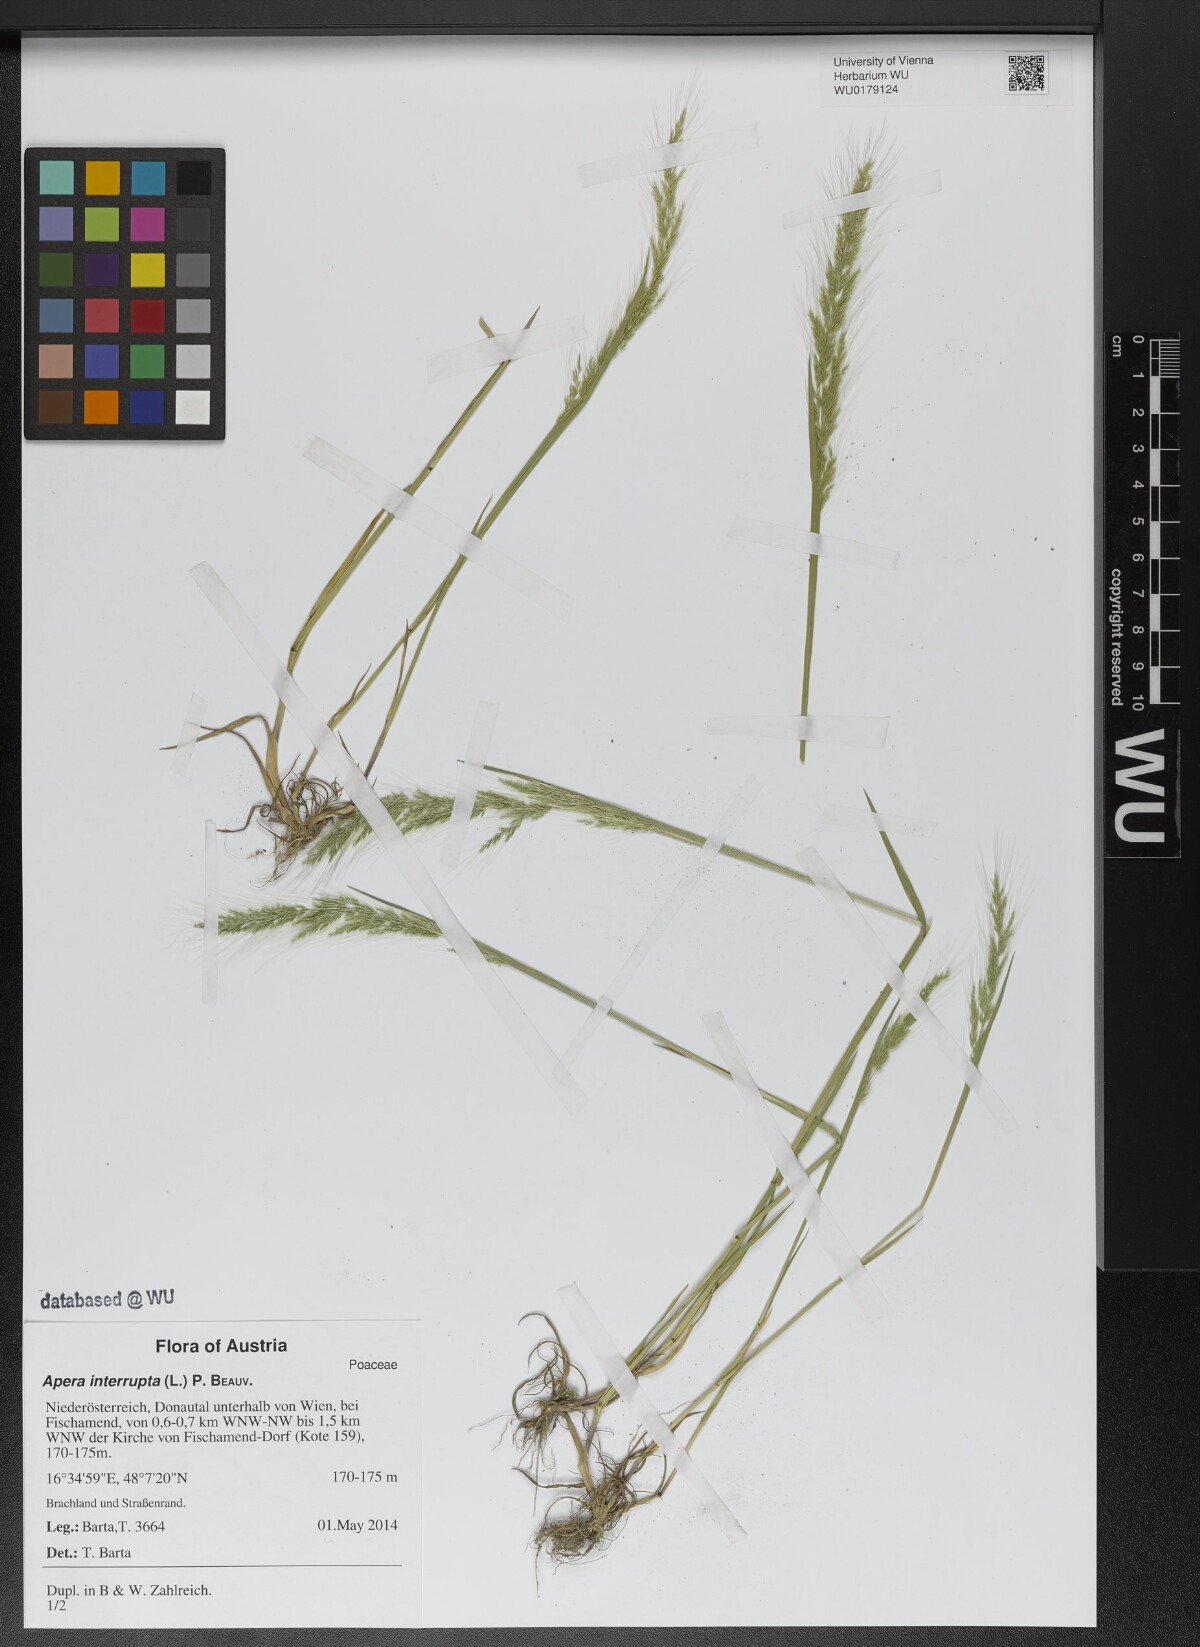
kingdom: Plantae
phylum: Tracheophyta
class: Liliopsida
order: Poales
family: Poaceae
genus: Apera
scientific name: Apera interrupta
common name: Dense silky-bent
